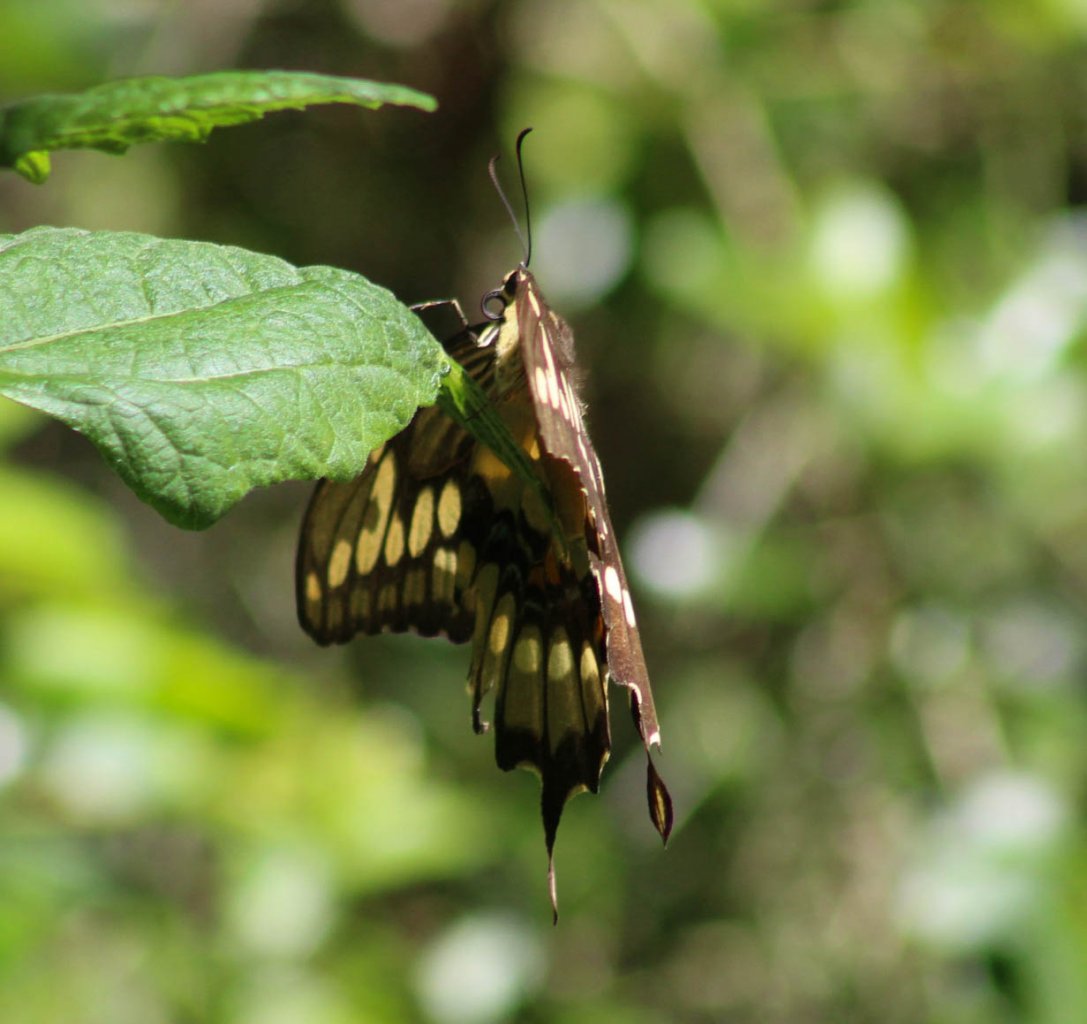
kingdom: Animalia
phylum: Arthropoda
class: Insecta
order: Lepidoptera
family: Papilionidae
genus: Papilio
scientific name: Papilio cresphontes
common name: Eastern Giant Swallowtail
